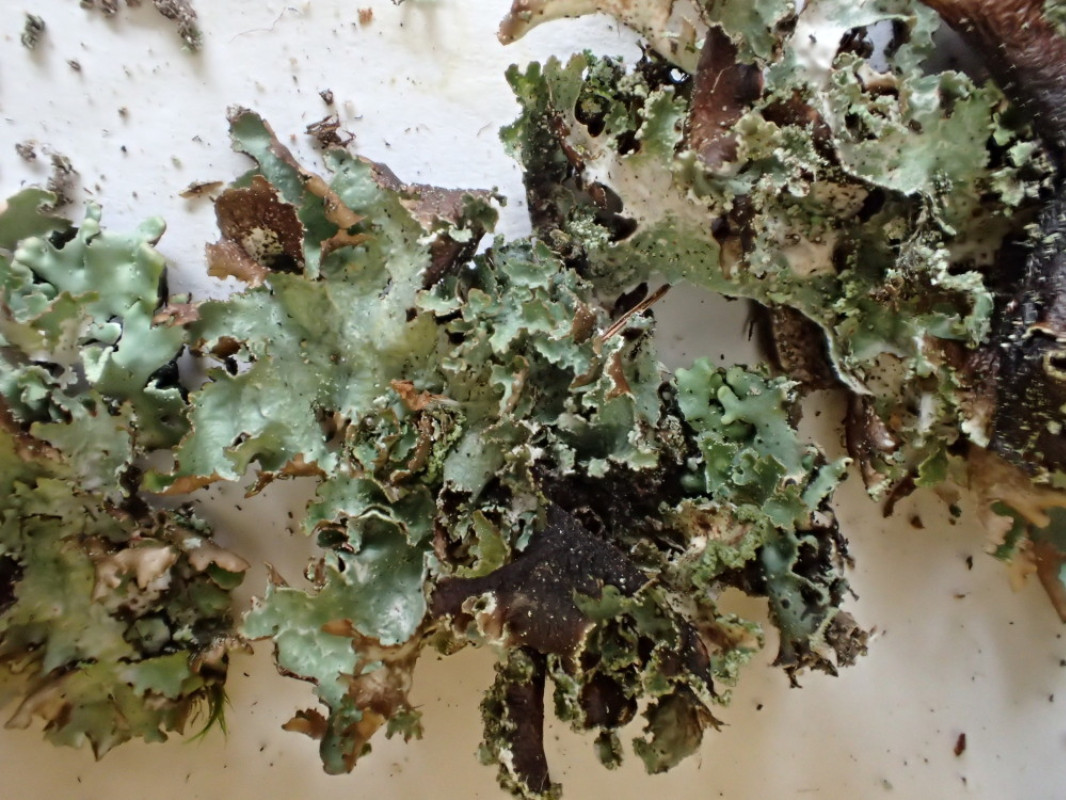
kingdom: Fungi
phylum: Ascomycota
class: Lecanoromycetes
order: Lecanorales
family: Parmeliaceae
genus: Platismatia
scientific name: Platismatia glauca
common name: blågrå papirlav
